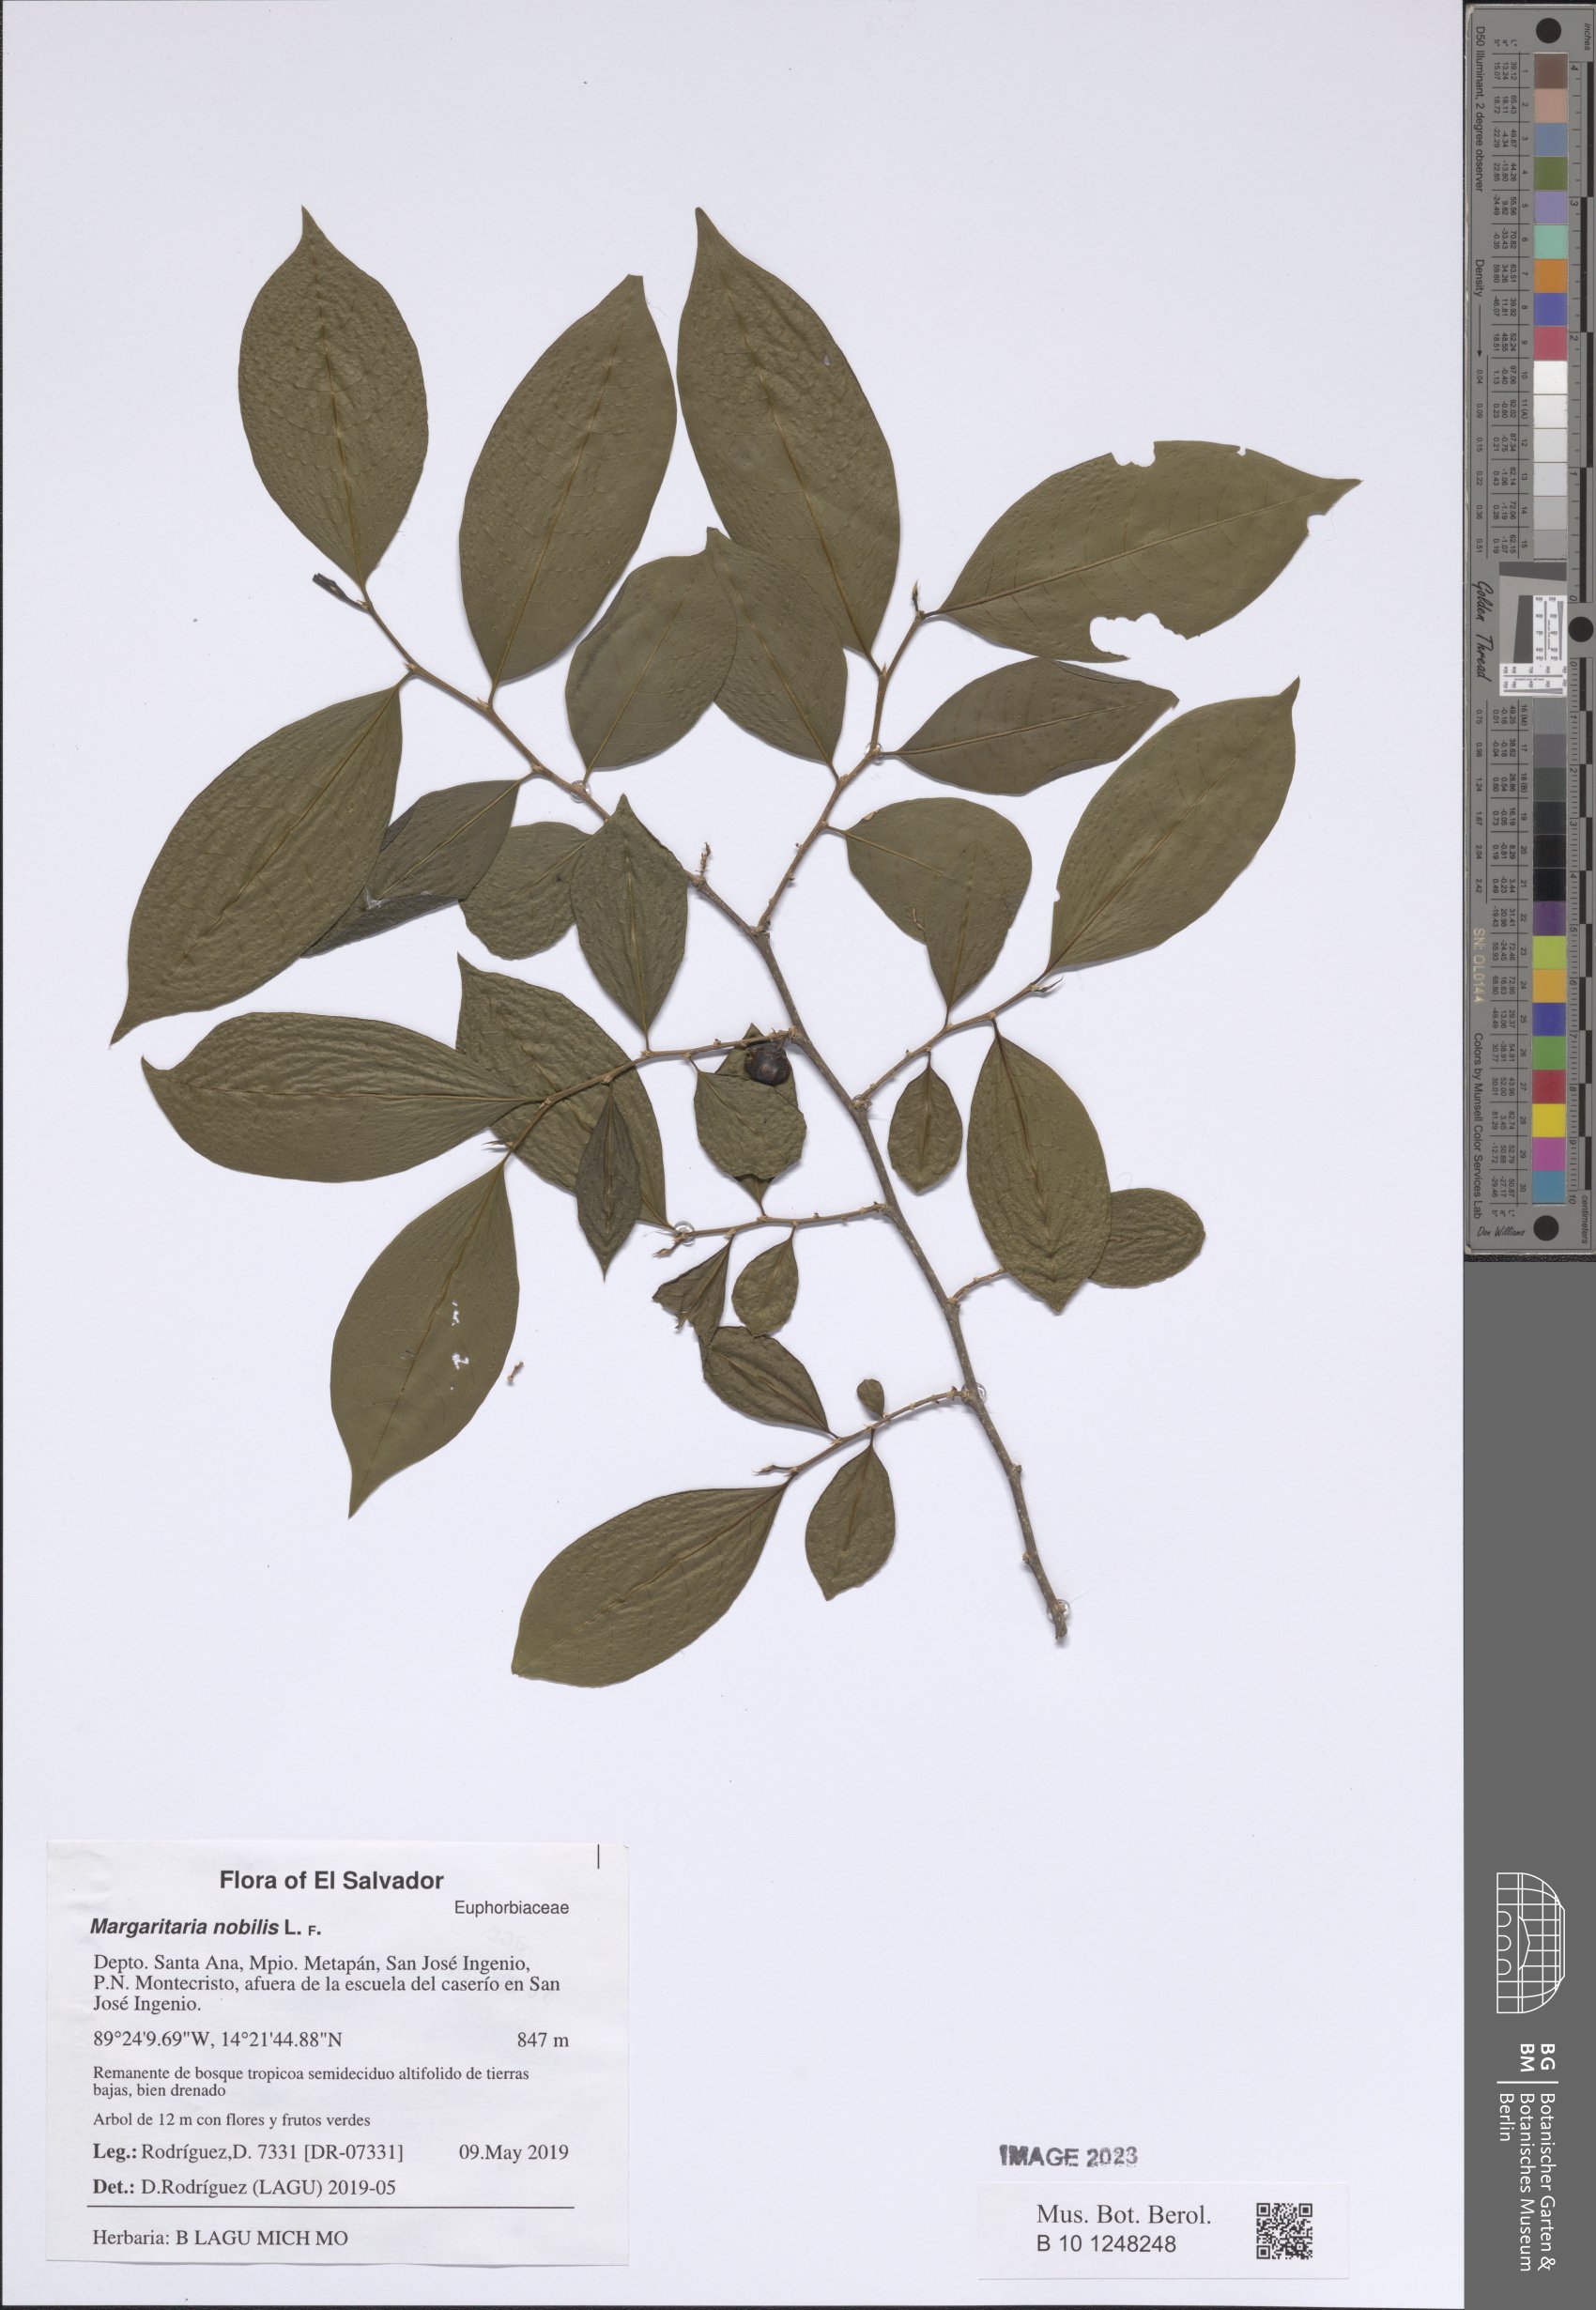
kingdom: Plantae
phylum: Tracheophyta
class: Magnoliopsida
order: Malpighiales
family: Phyllanthaceae
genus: Margaritaria
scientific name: Margaritaria nobilis
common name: Goose berry
